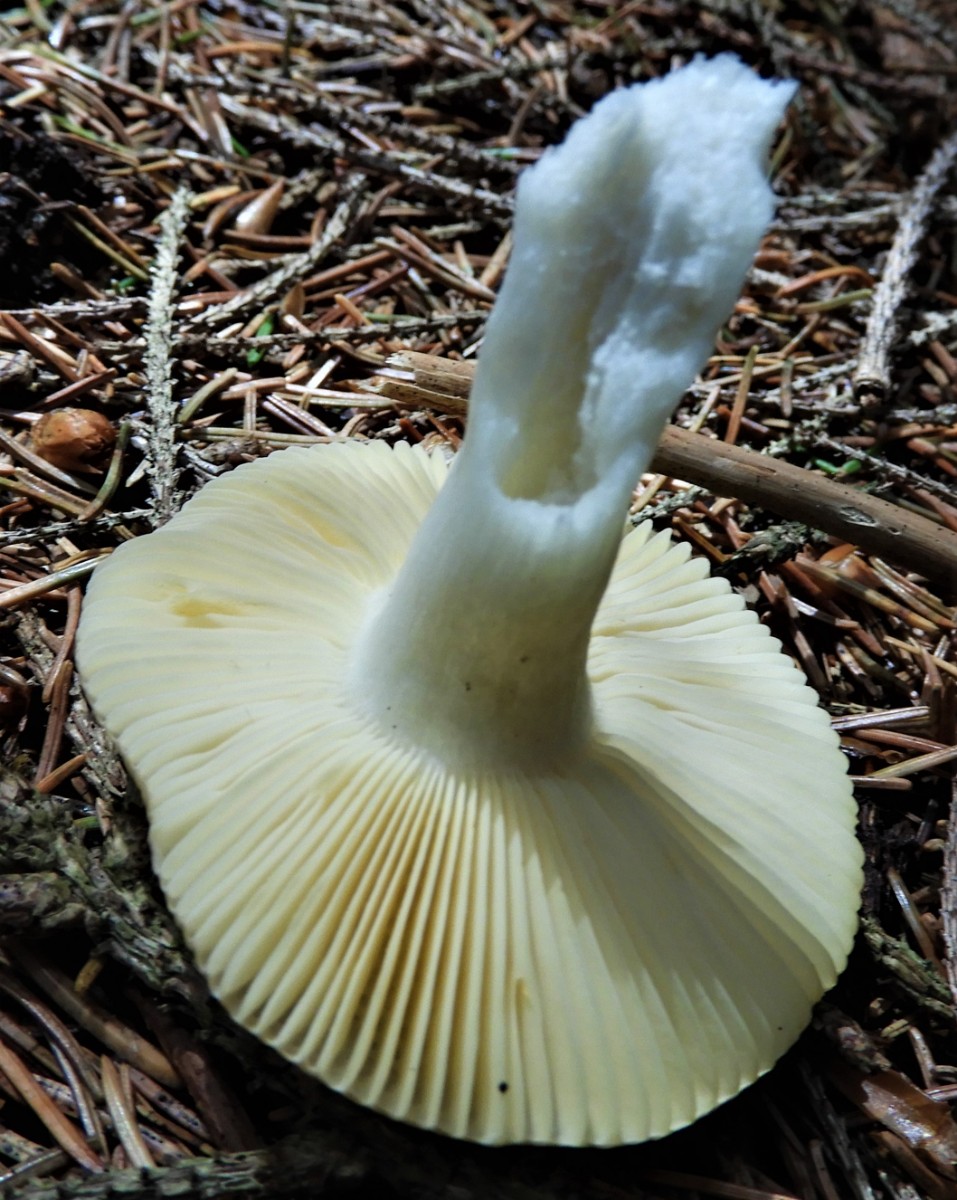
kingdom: Fungi
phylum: Basidiomycota
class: Agaricomycetes
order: Russulales
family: Russulaceae
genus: Russula
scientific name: Russula nauseosa
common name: spinkel skørhat
